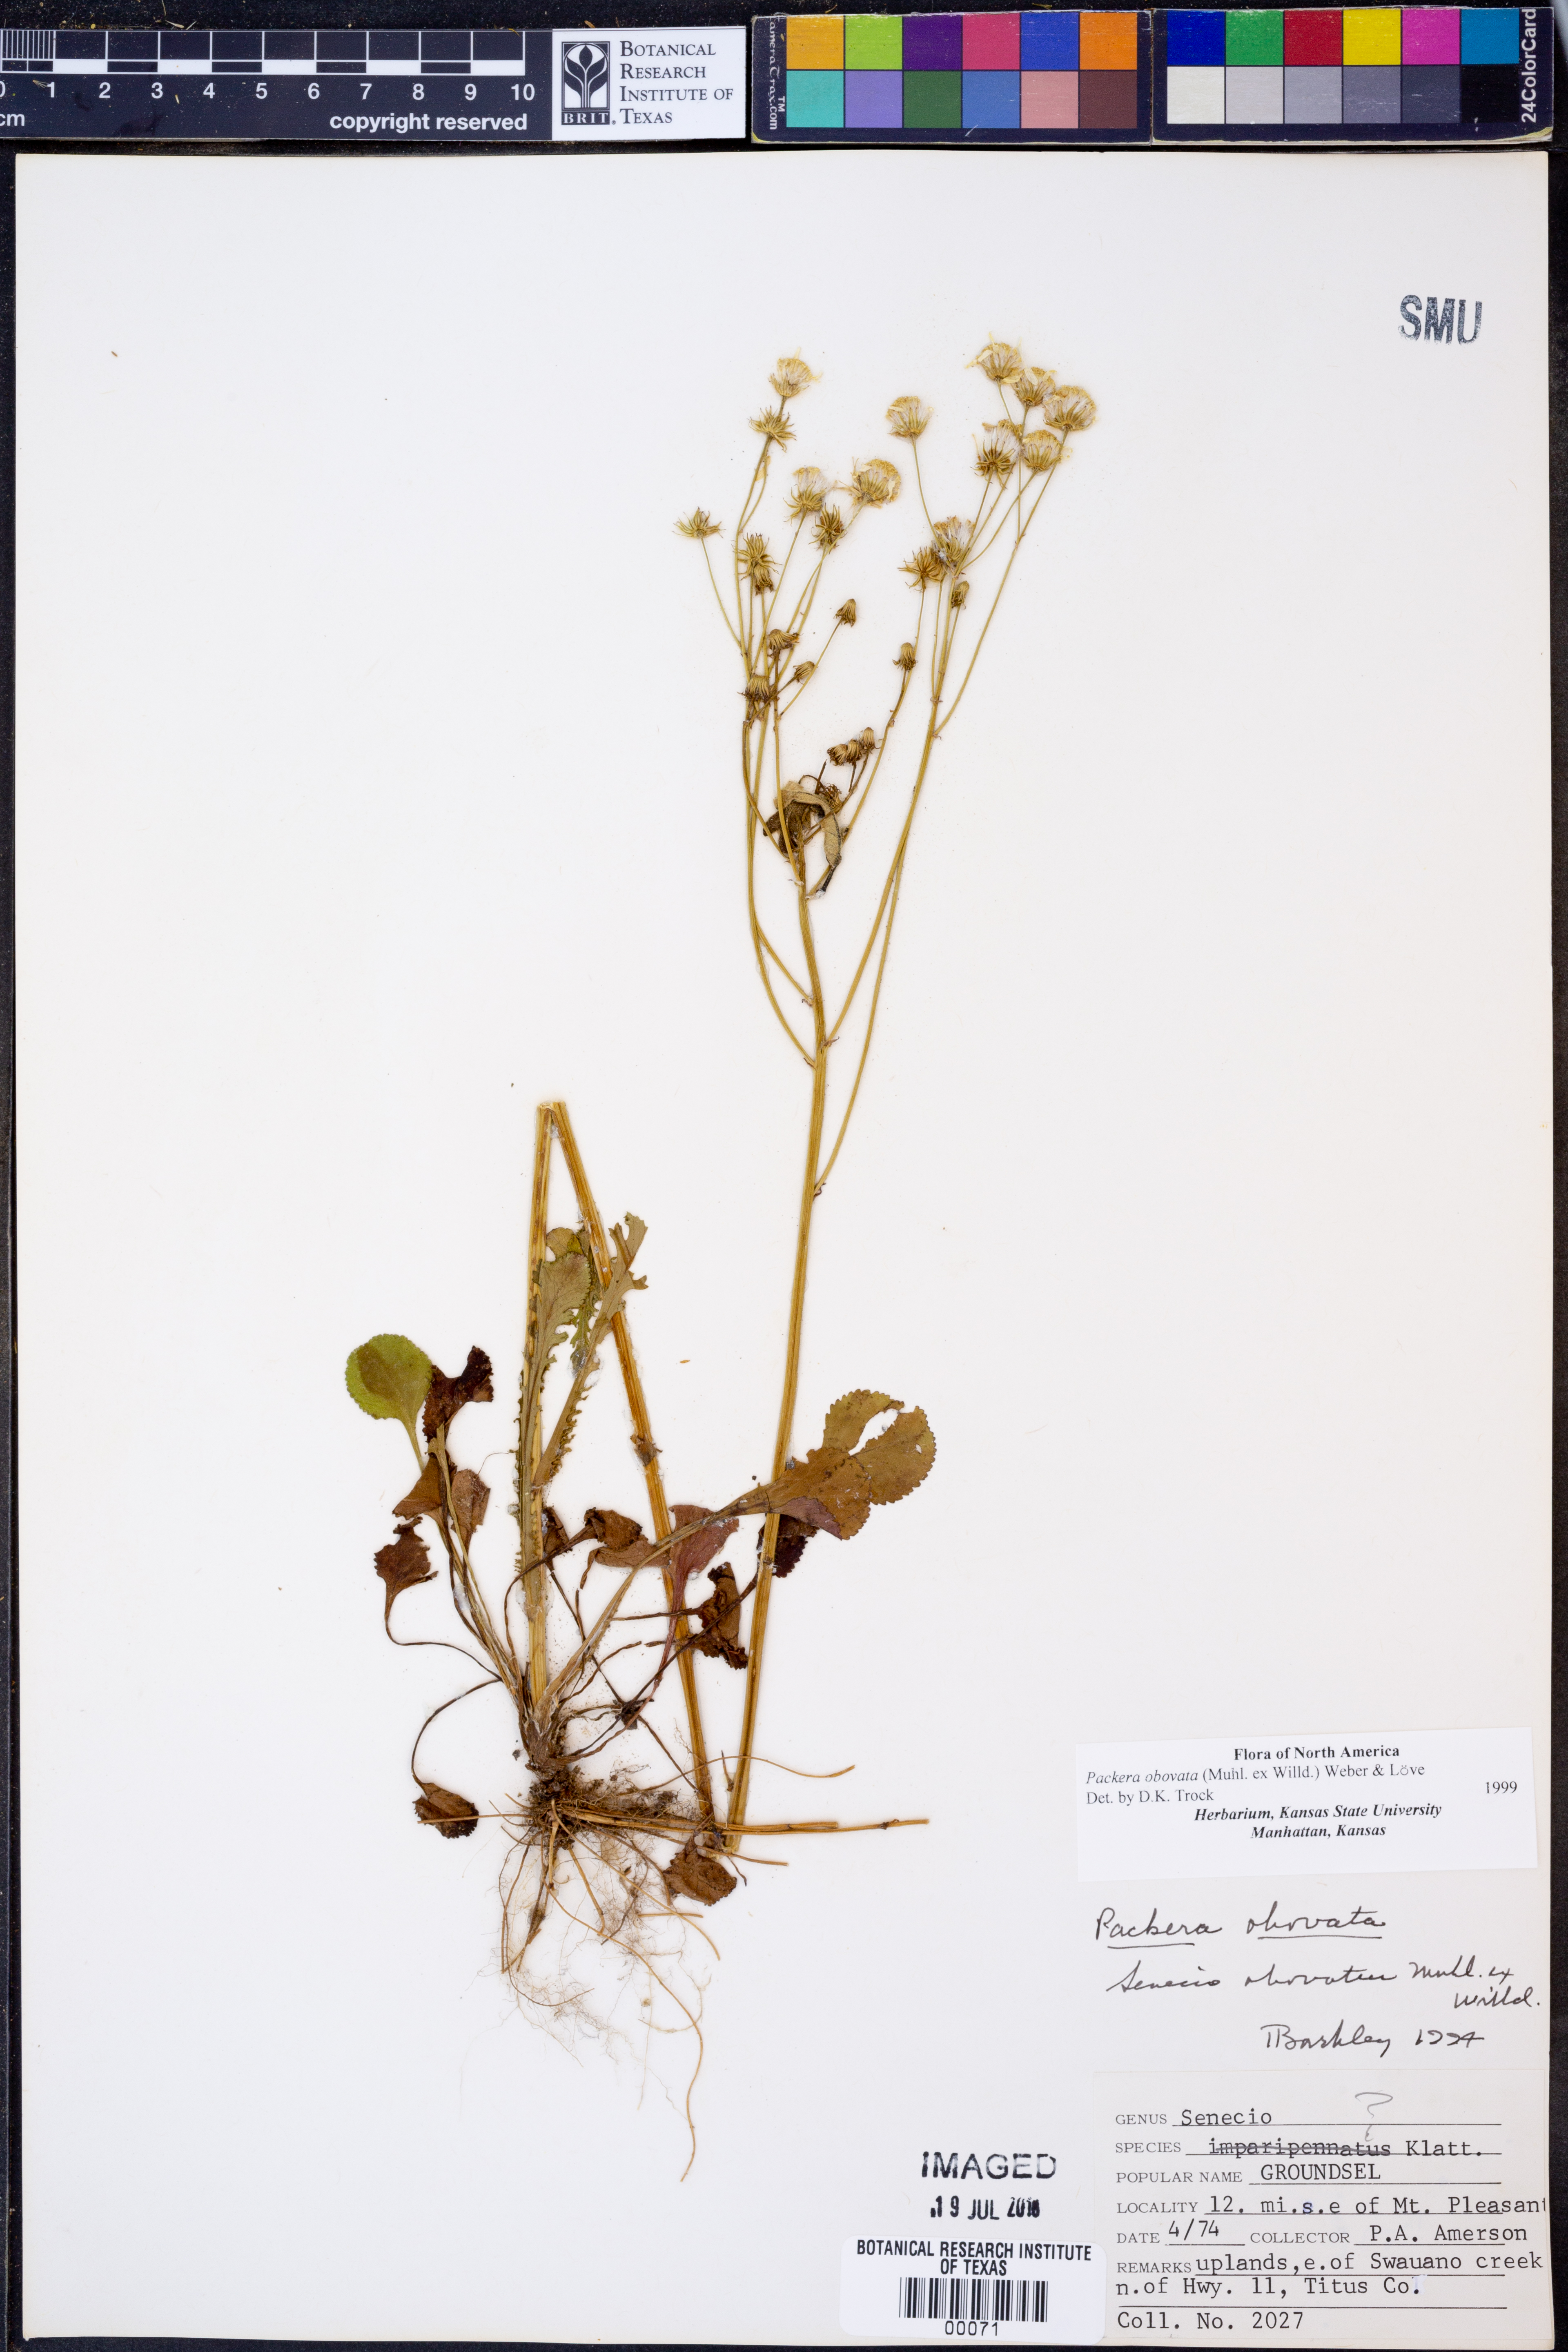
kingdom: Plantae
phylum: Tracheophyta
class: Magnoliopsida
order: Asterales
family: Asteraceae
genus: Packera
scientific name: Packera obovata
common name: Round-leaf ragwort
